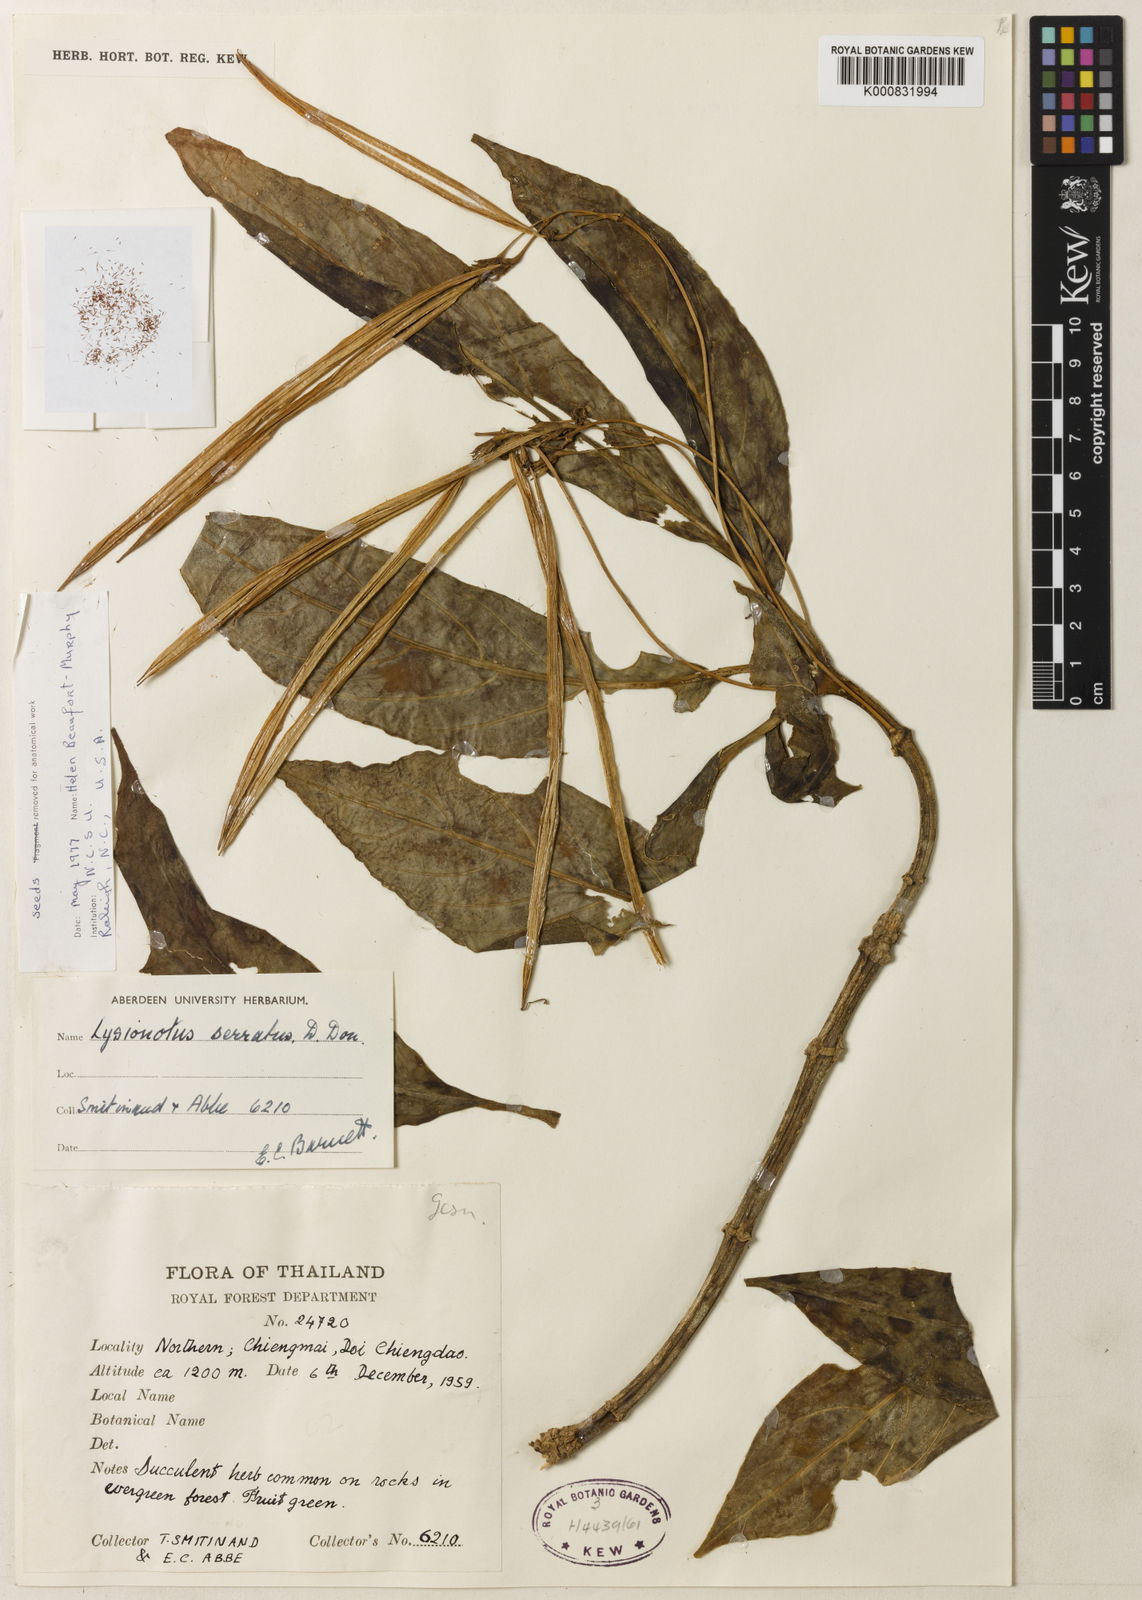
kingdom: Plantae
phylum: Tracheophyta
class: Magnoliopsida
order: Lamiales
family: Gesneriaceae
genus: Lysionotus
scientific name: Lysionotus serratus
